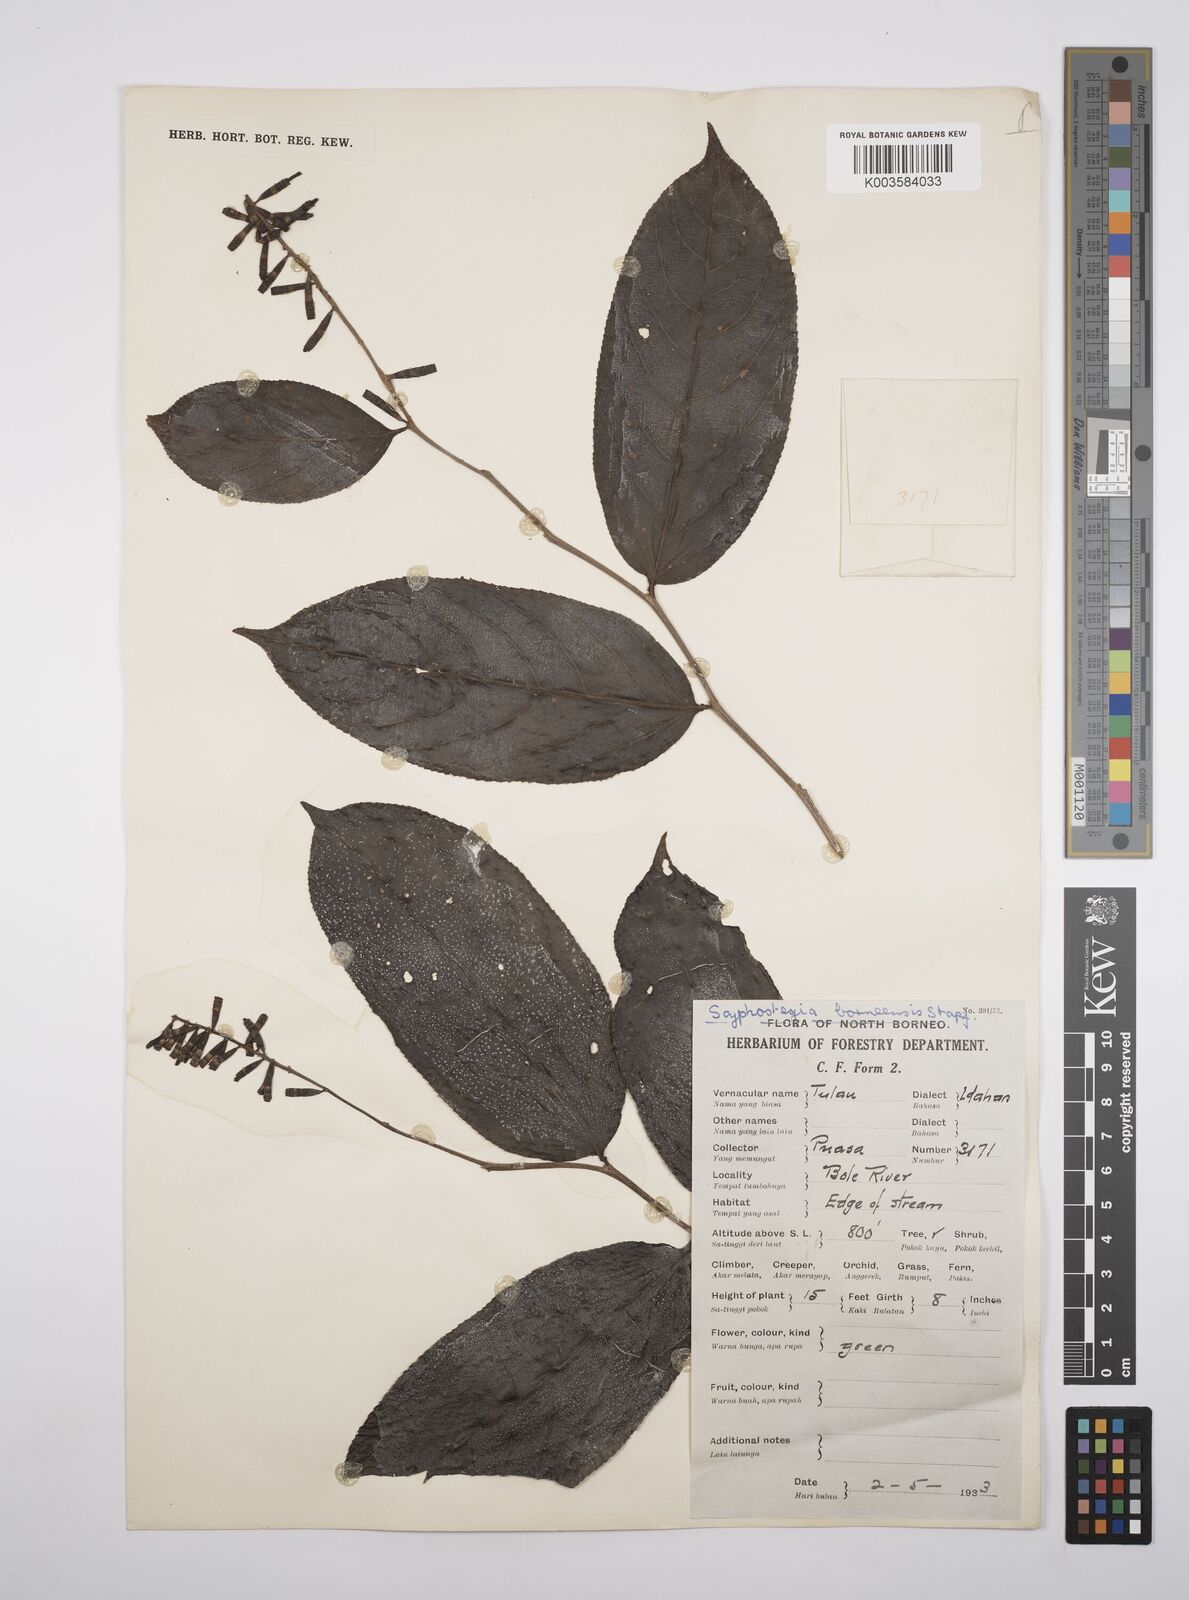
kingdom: Plantae
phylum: Tracheophyta
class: Magnoliopsida
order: Malpighiales
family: Salicaceae
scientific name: Salicaceae
